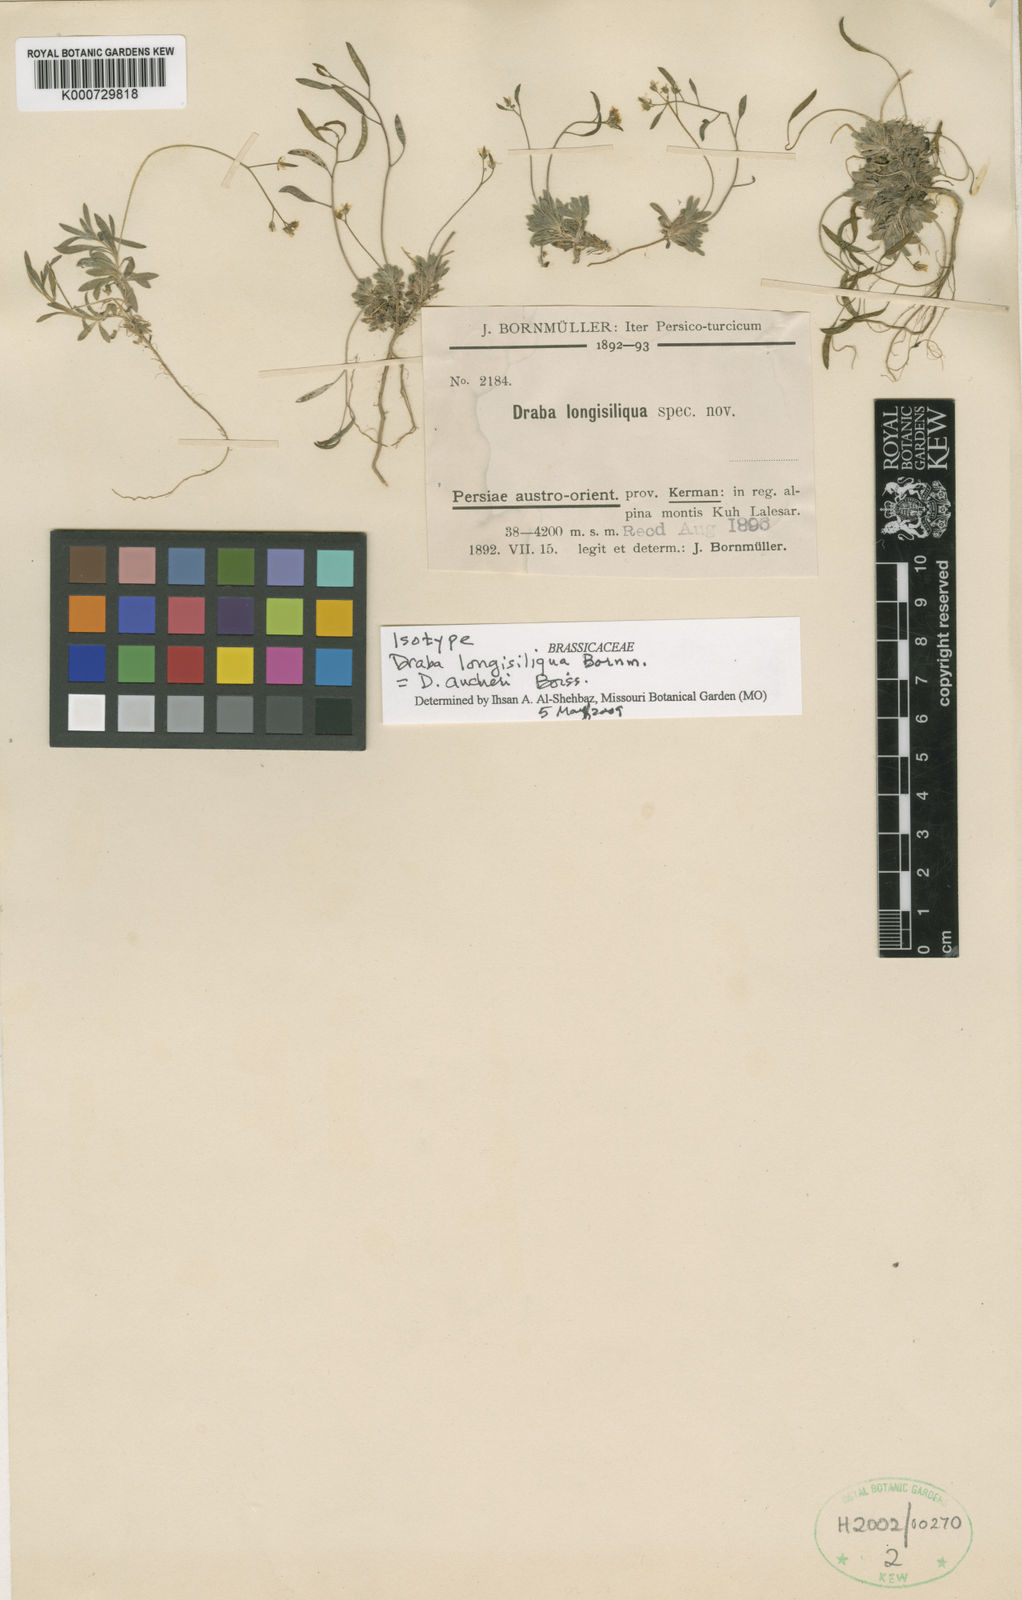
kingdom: Plantae
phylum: Tracheophyta
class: Magnoliopsida
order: Brassicales
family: Brassicaceae
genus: Draba
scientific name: Draba aucheri
